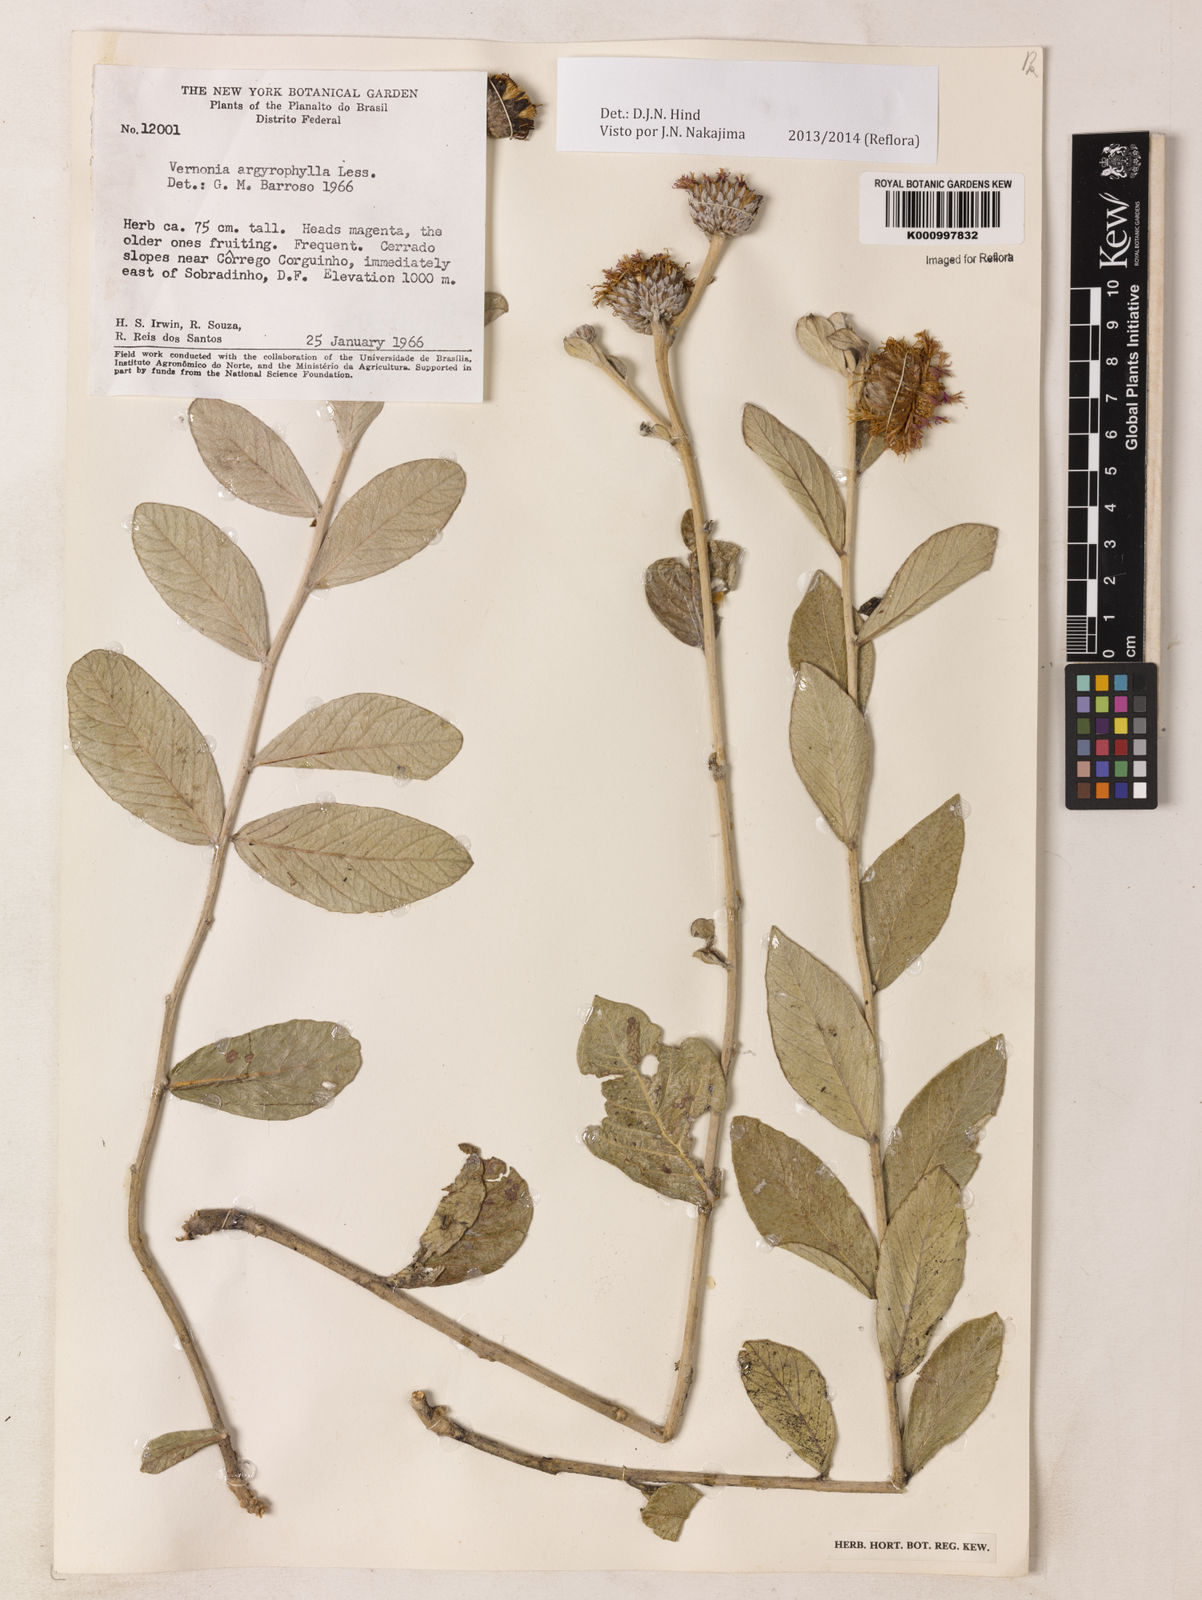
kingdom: Plantae
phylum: Tracheophyta
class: Magnoliopsida
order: Asterales
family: Asteraceae
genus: Lessingianthus
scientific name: Lessingianthus argyrophyllus
